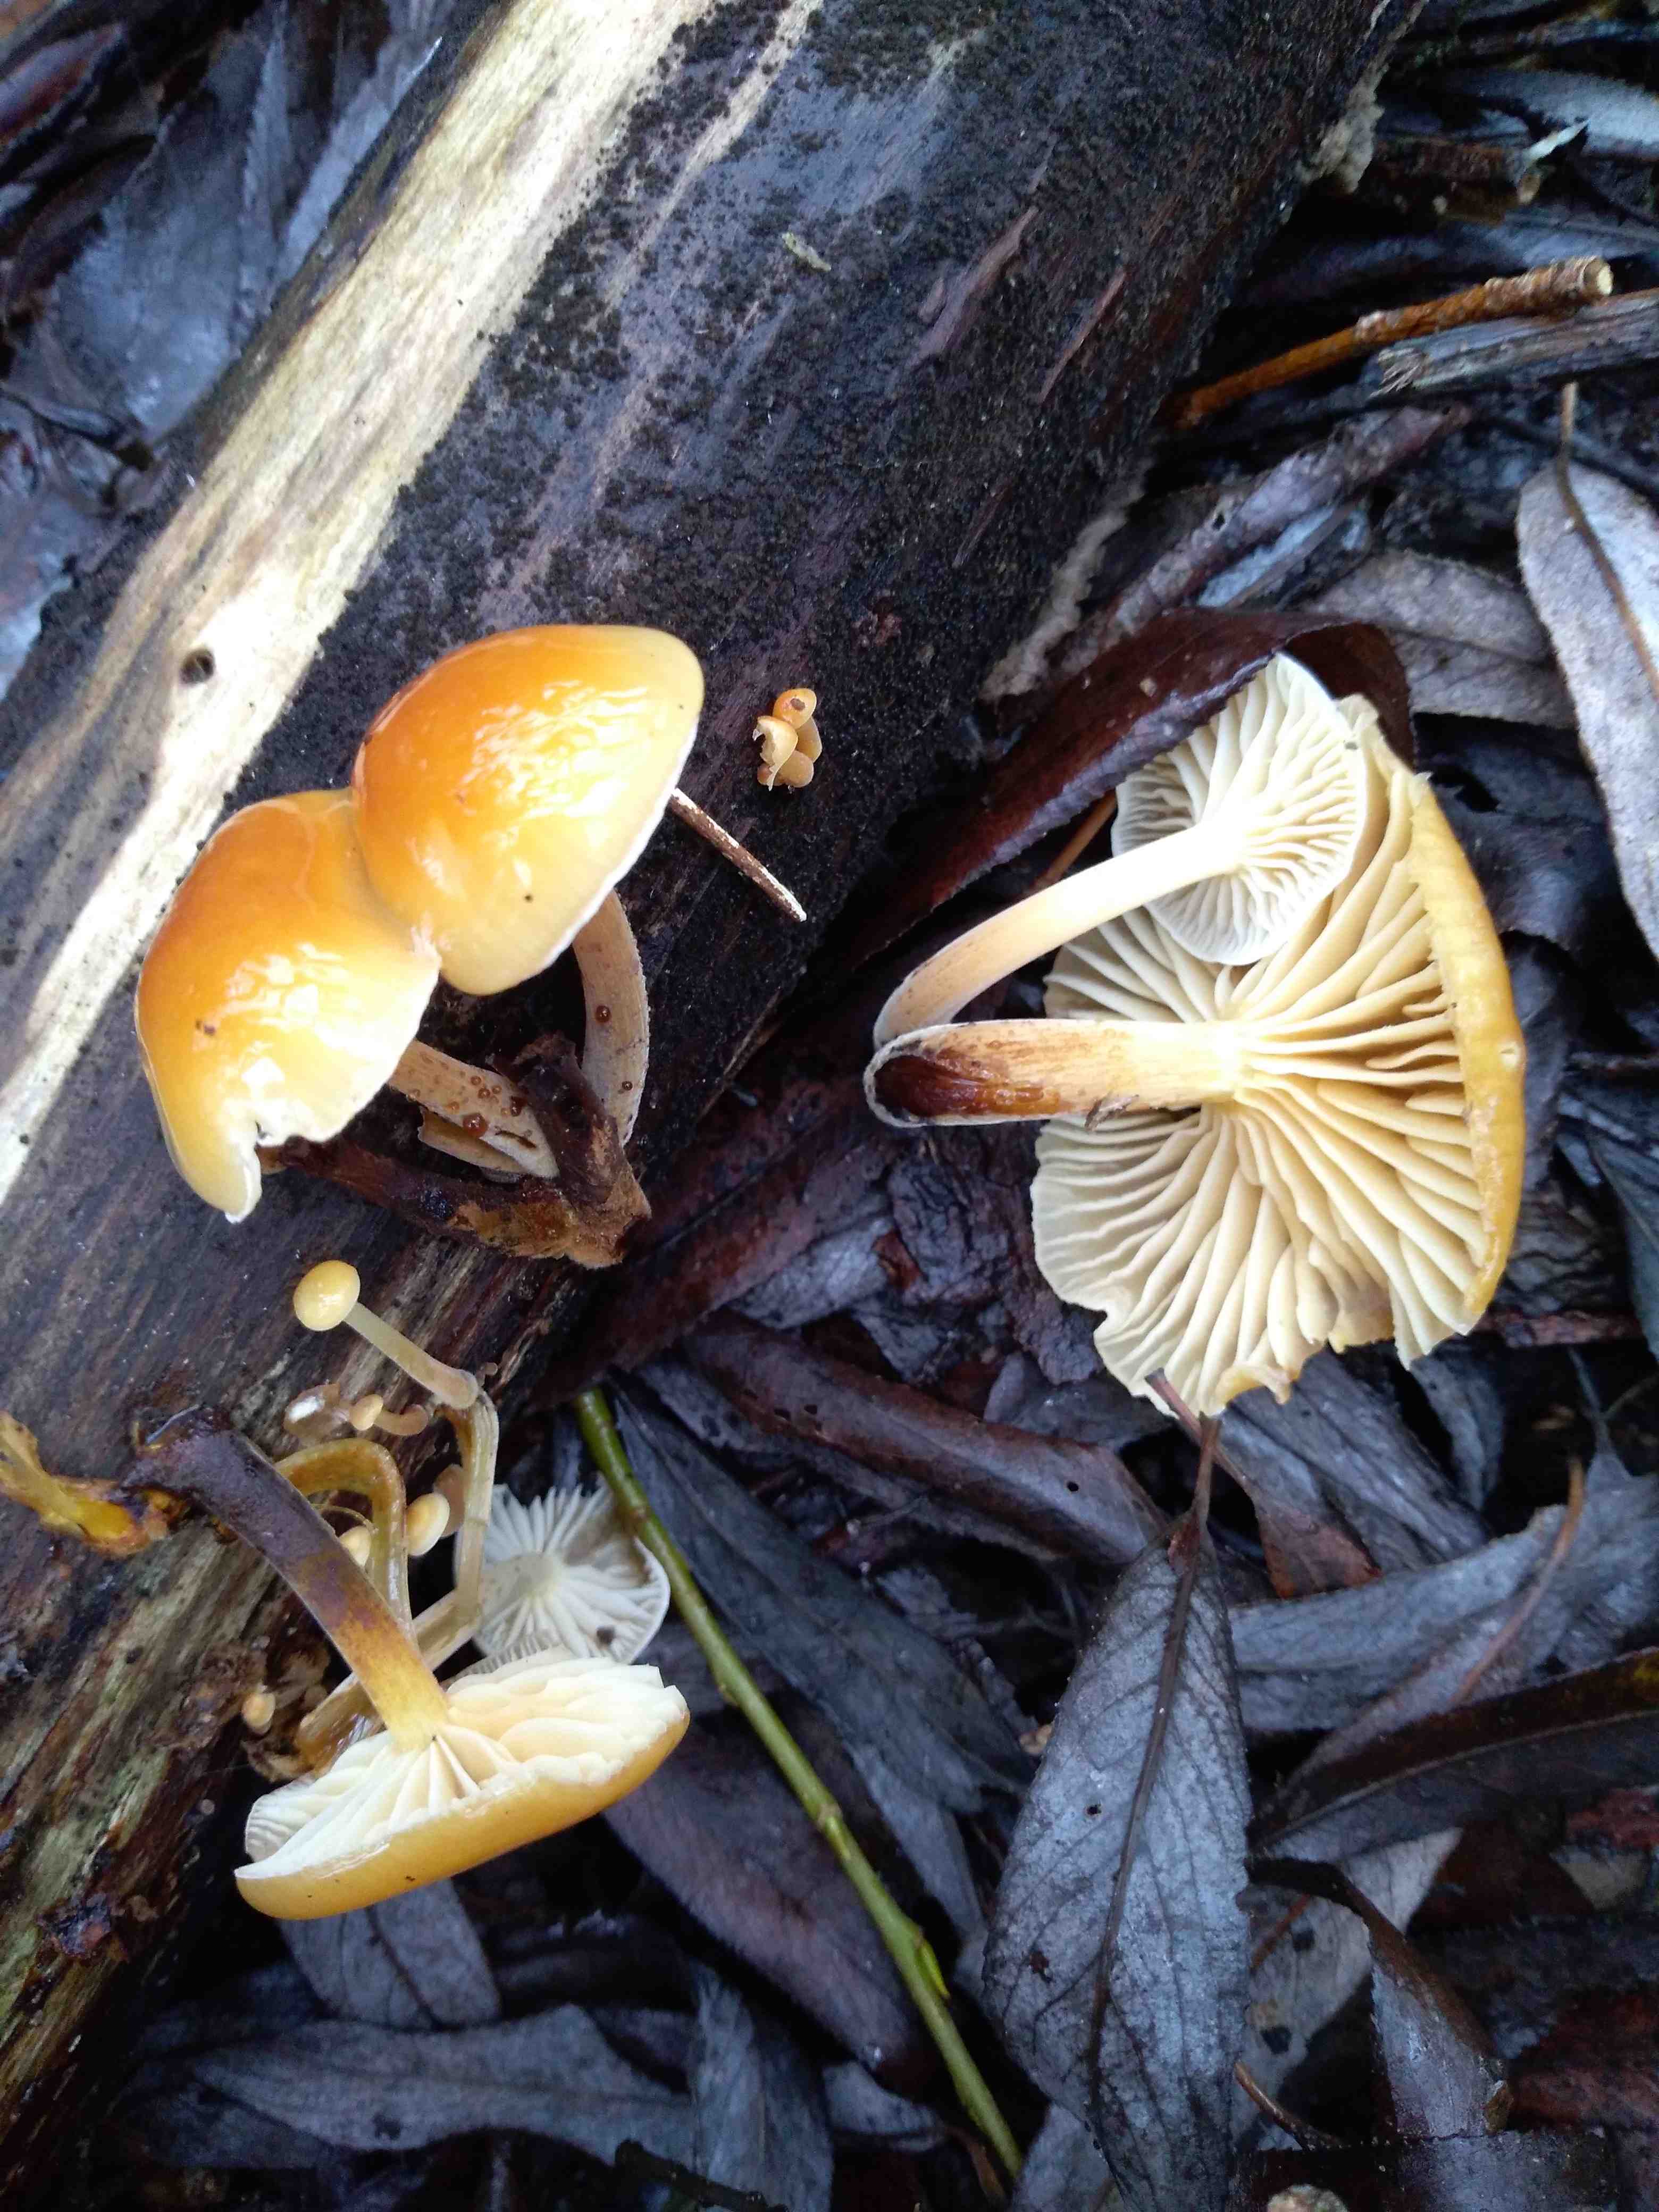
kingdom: Fungi
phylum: Basidiomycota
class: Agaricomycetes
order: Agaricales
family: Physalacriaceae
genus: Flammulina
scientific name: Flammulina velutipes
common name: gul fløjlsfod
